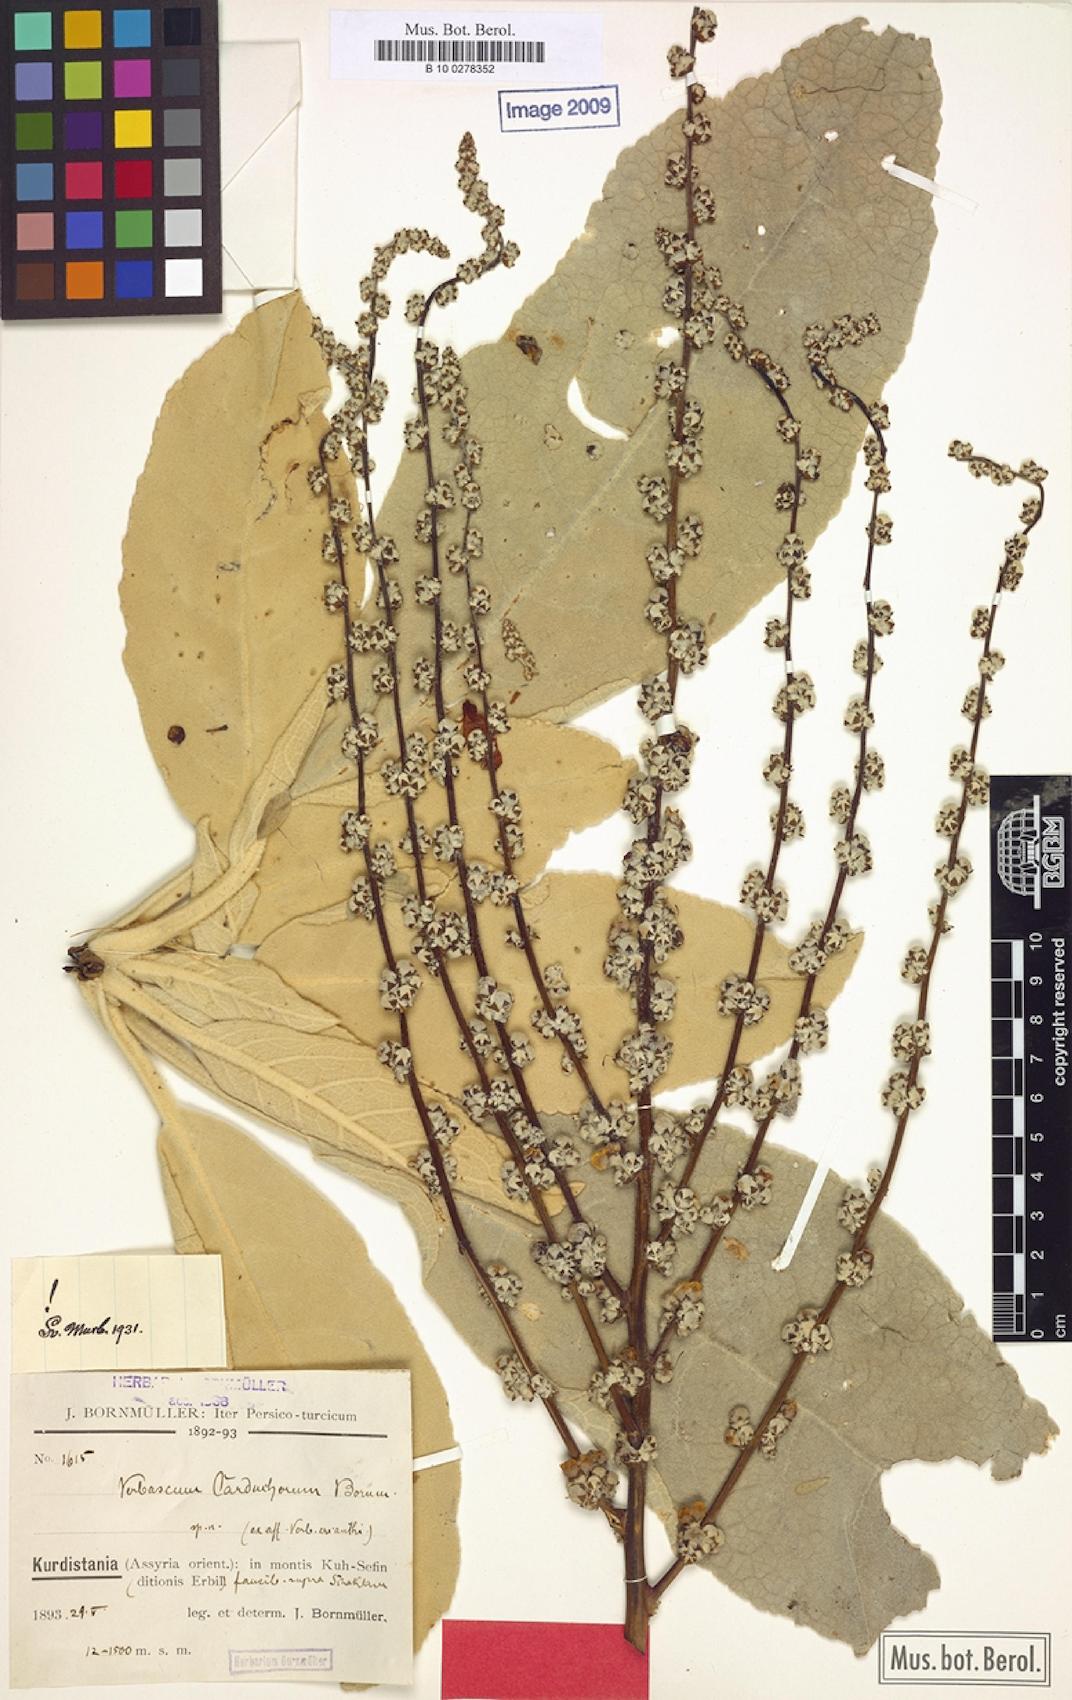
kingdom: Plantae
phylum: Tracheophyta
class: Magnoliopsida
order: Lamiales
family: Scrophulariaceae
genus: Verbascum
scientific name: Verbascum carduchorum
